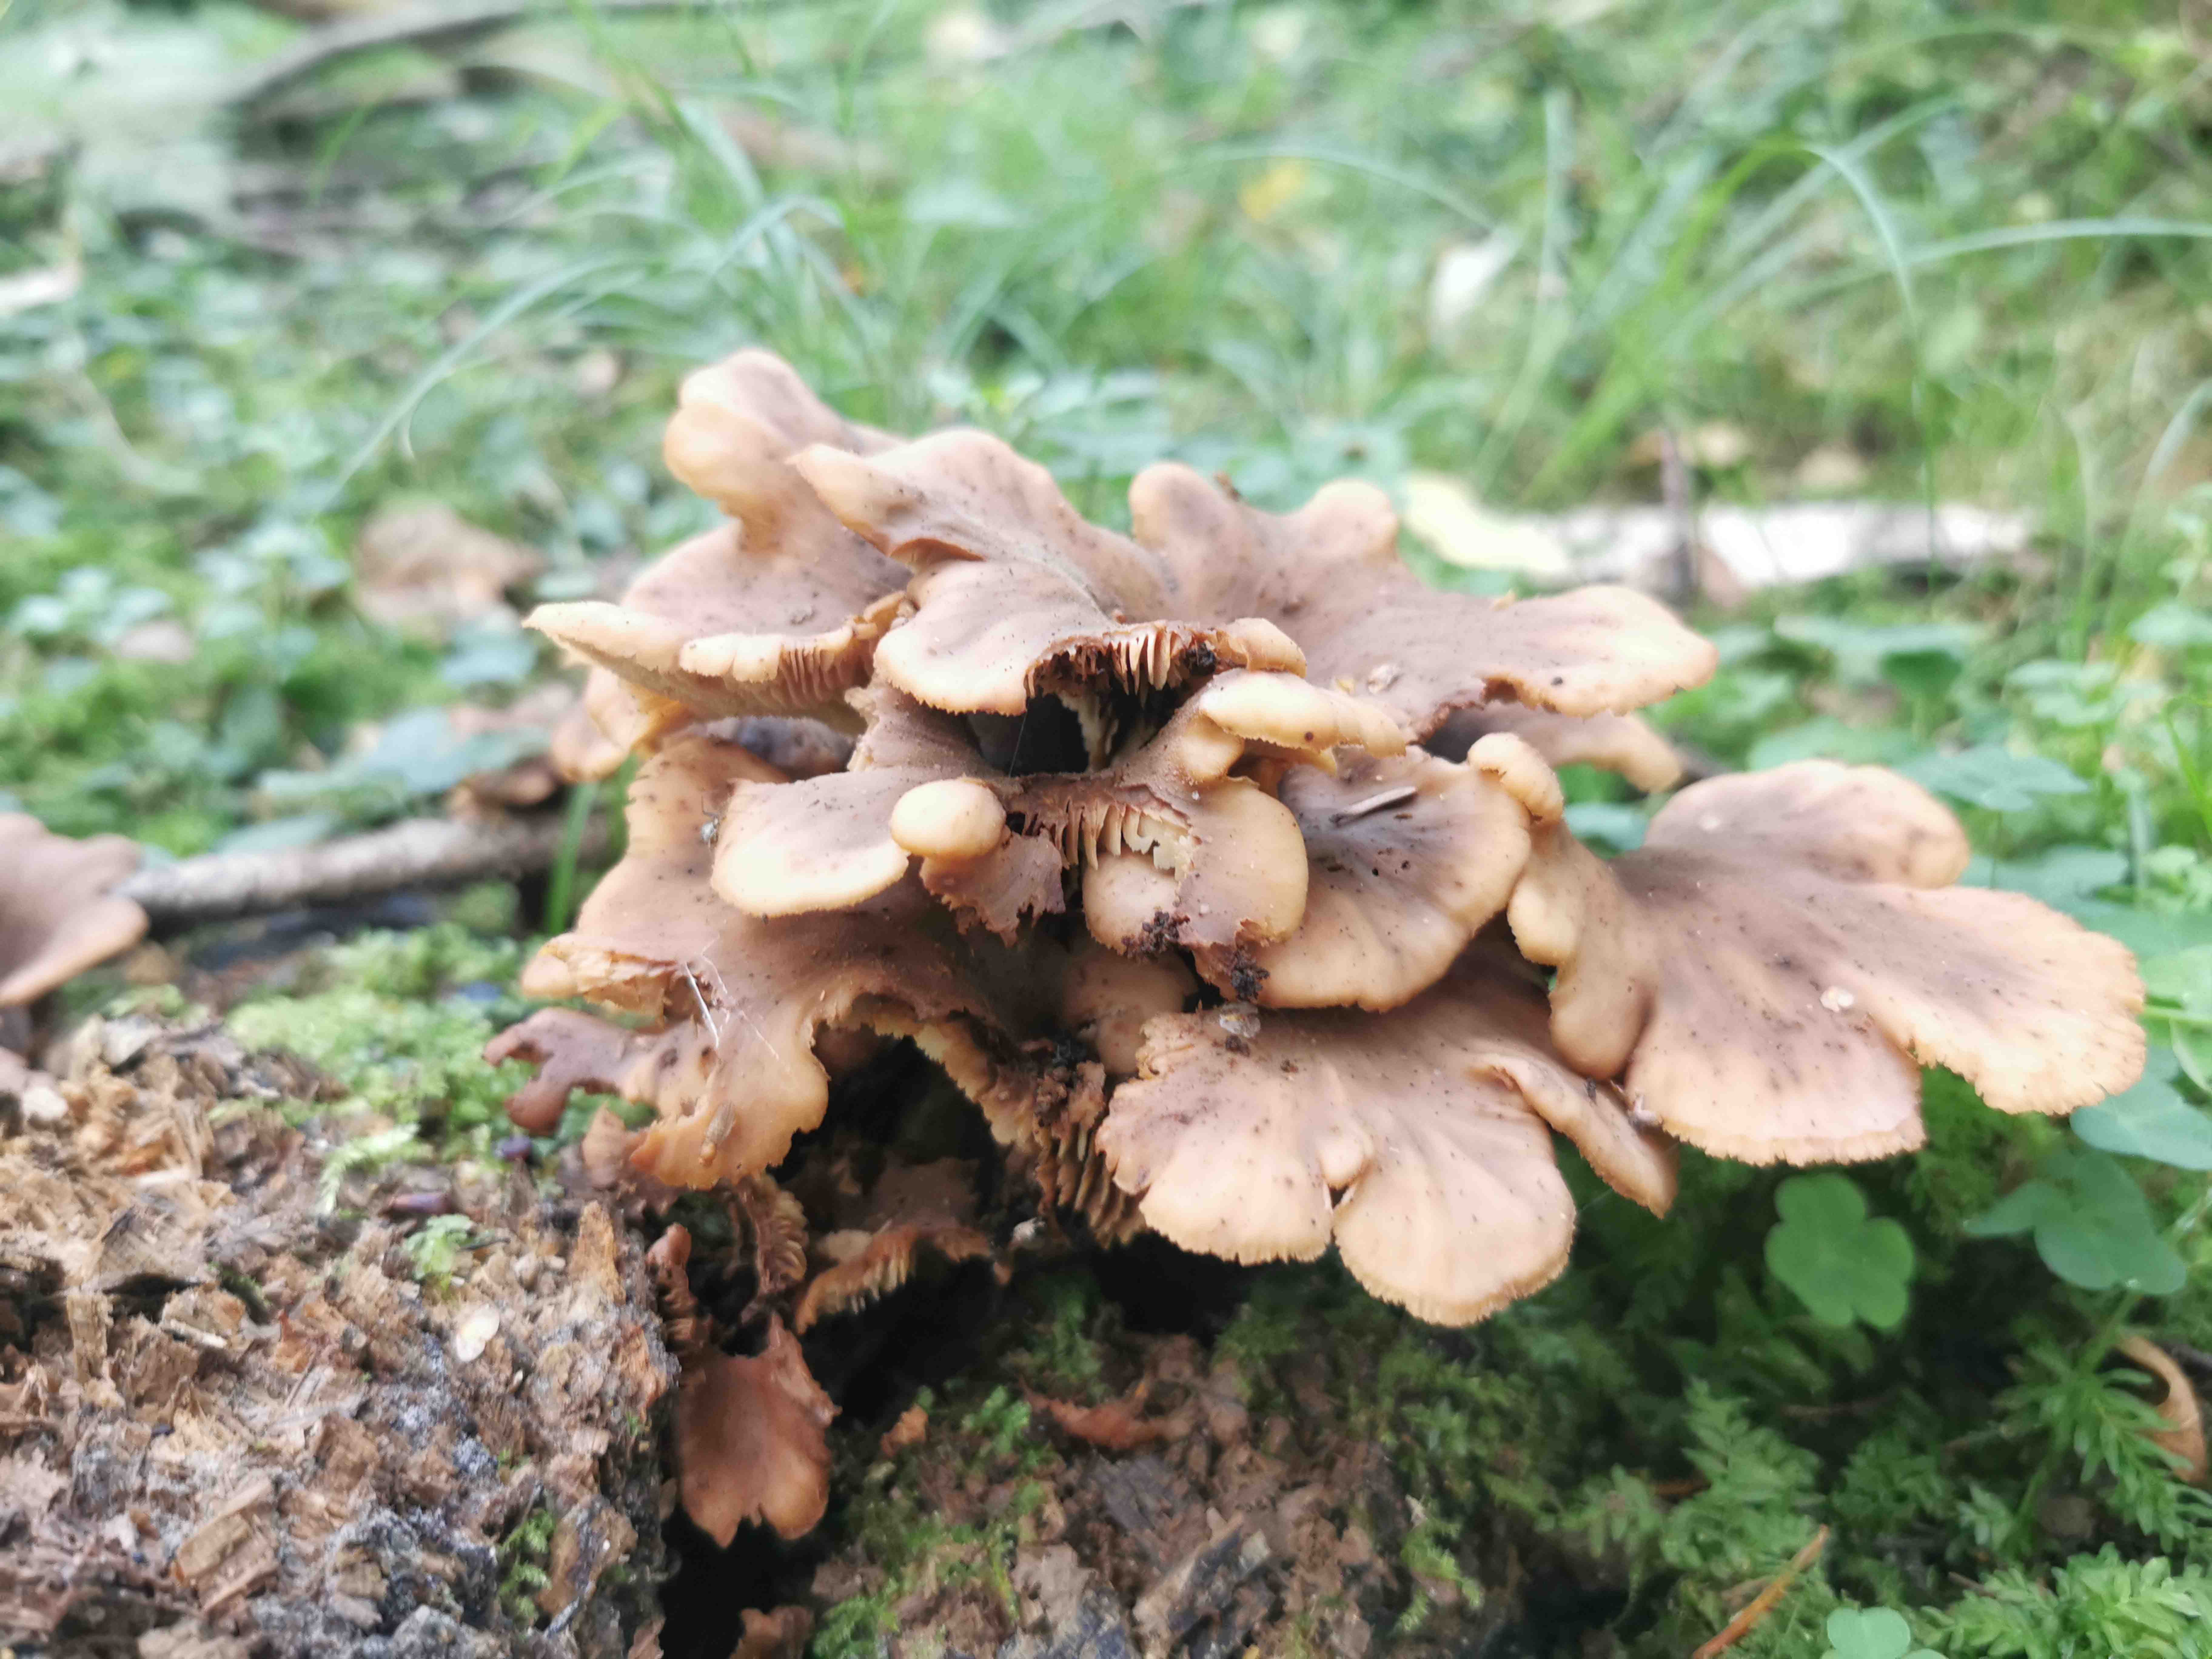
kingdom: Fungi
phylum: Basidiomycota
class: Agaricomycetes
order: Russulales
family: Auriscalpiaceae
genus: Lentinellus
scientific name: Lentinellus cochleatus
